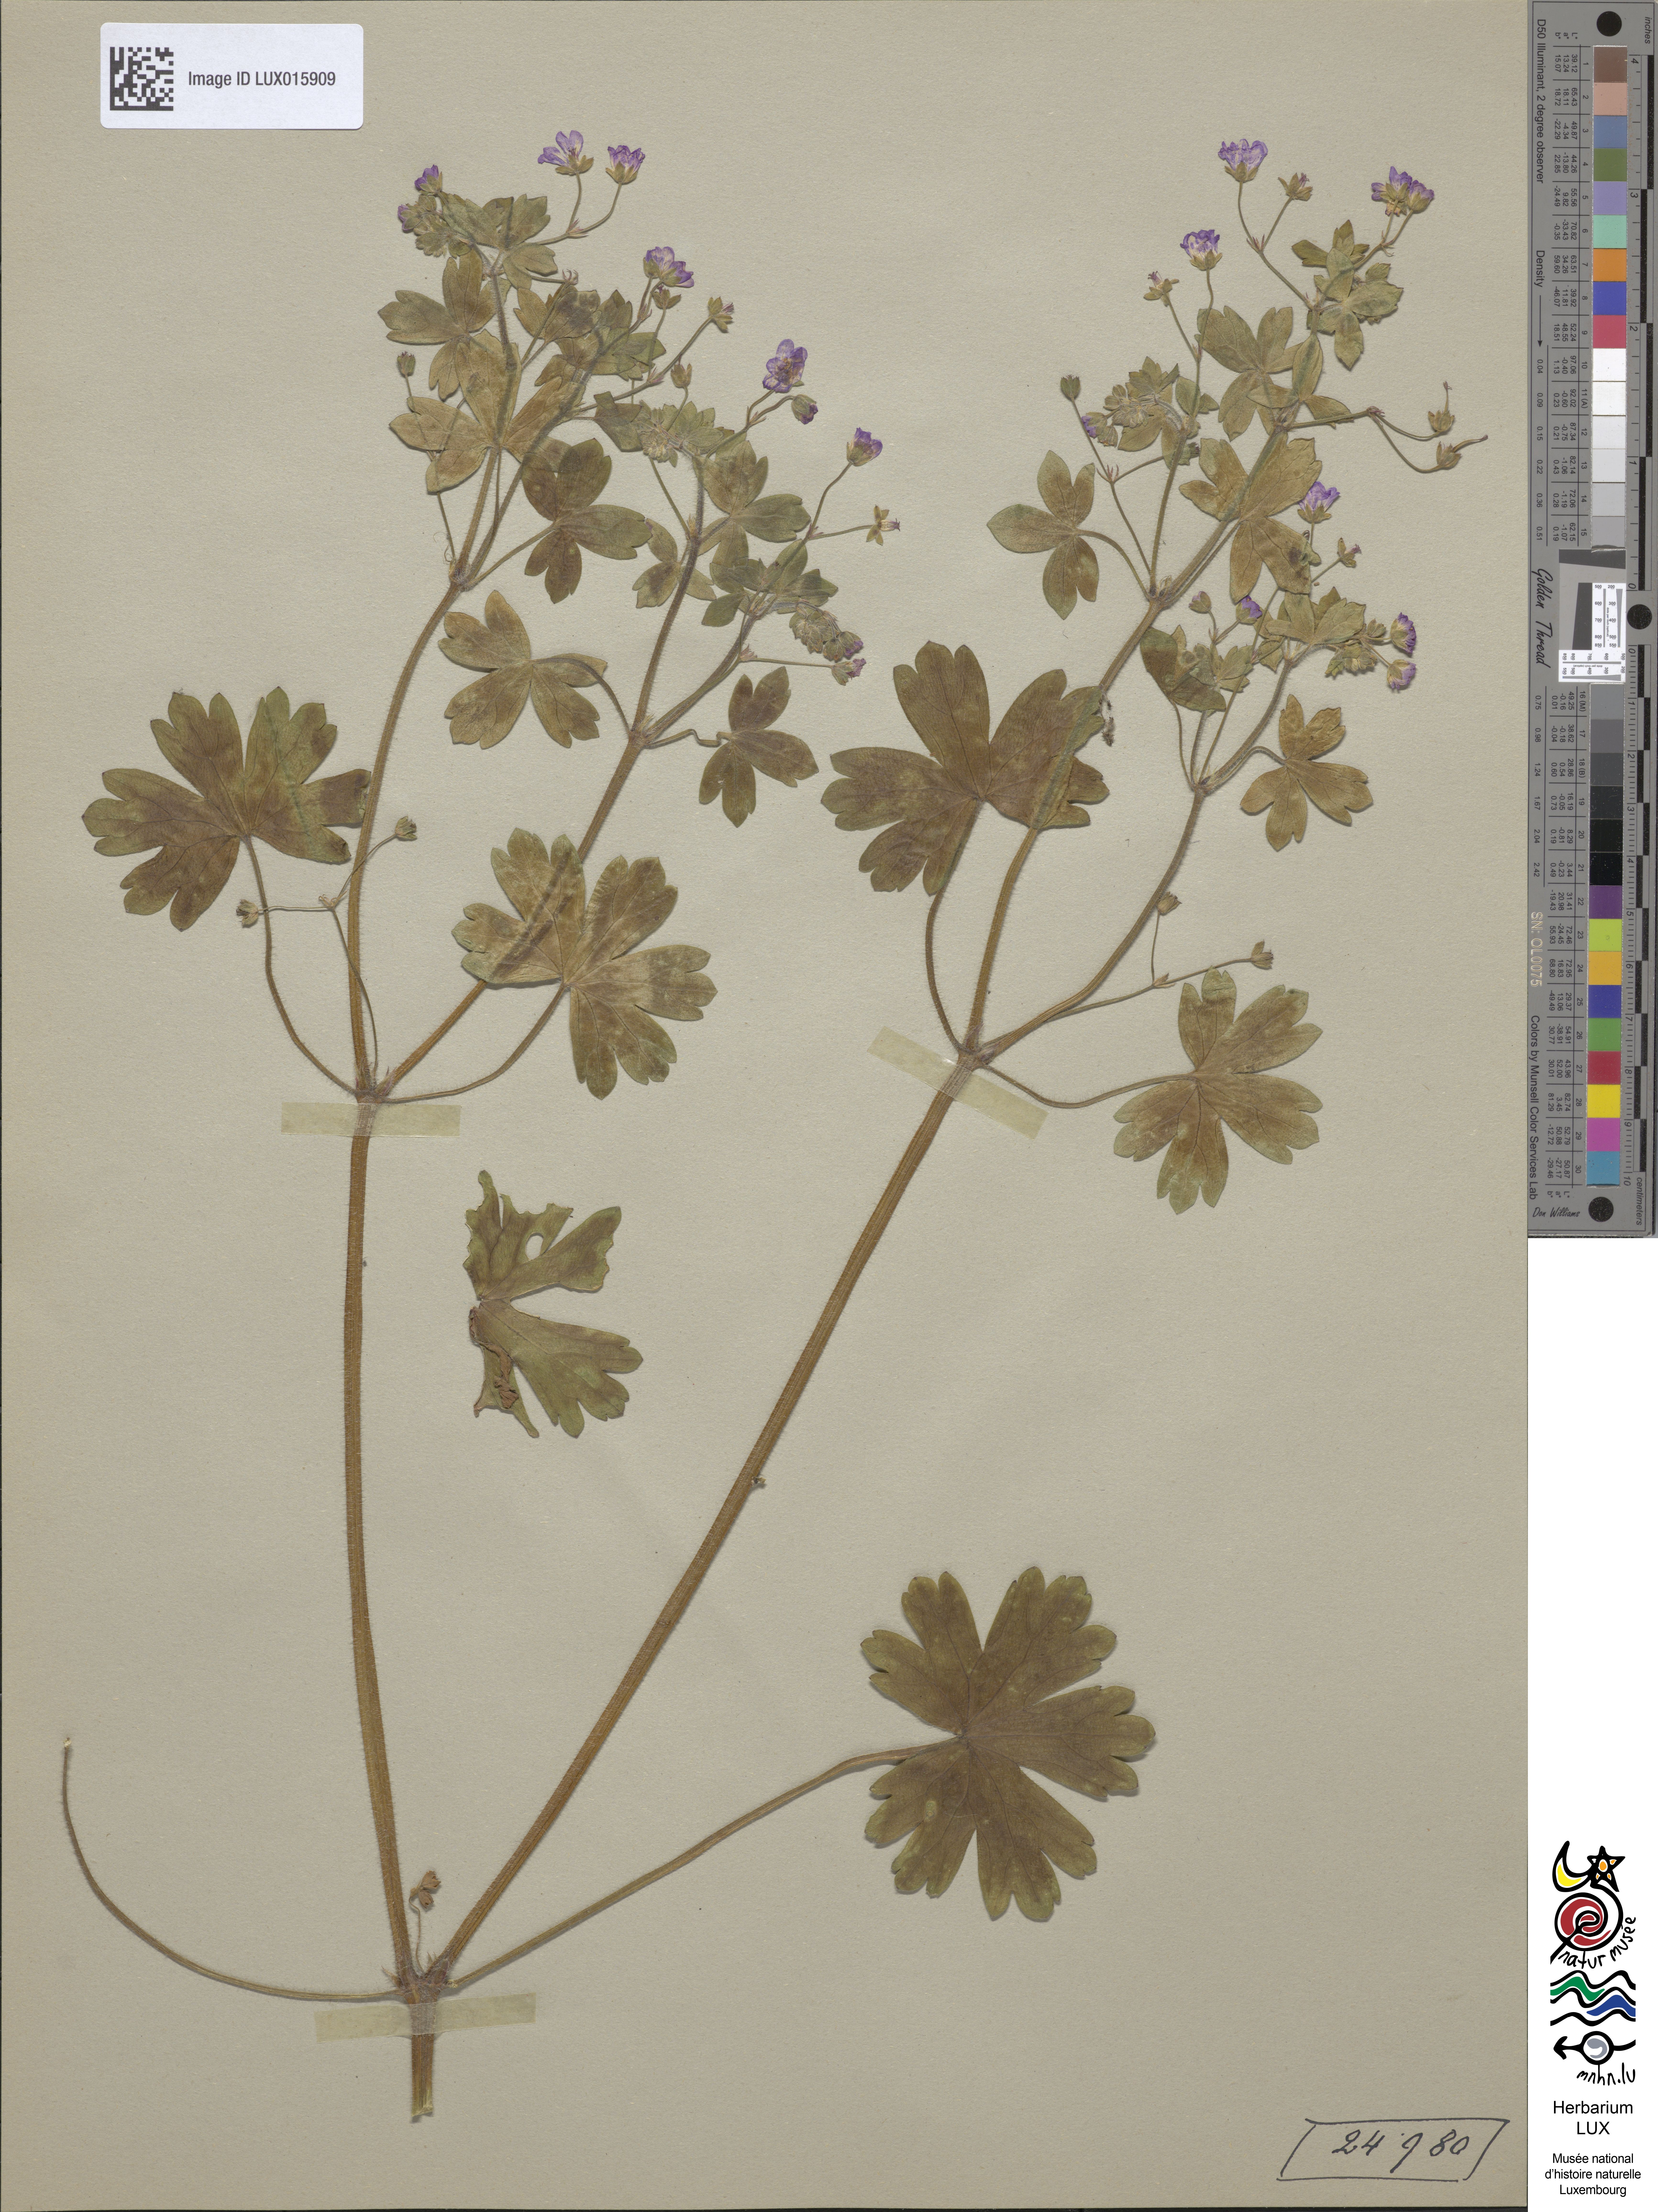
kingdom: Plantae
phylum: Tracheophyta
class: Magnoliopsida
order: Geraniales
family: Geraniaceae
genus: Geranium
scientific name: Geranium pyrenaicum
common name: Hedgerow crane's-bill
